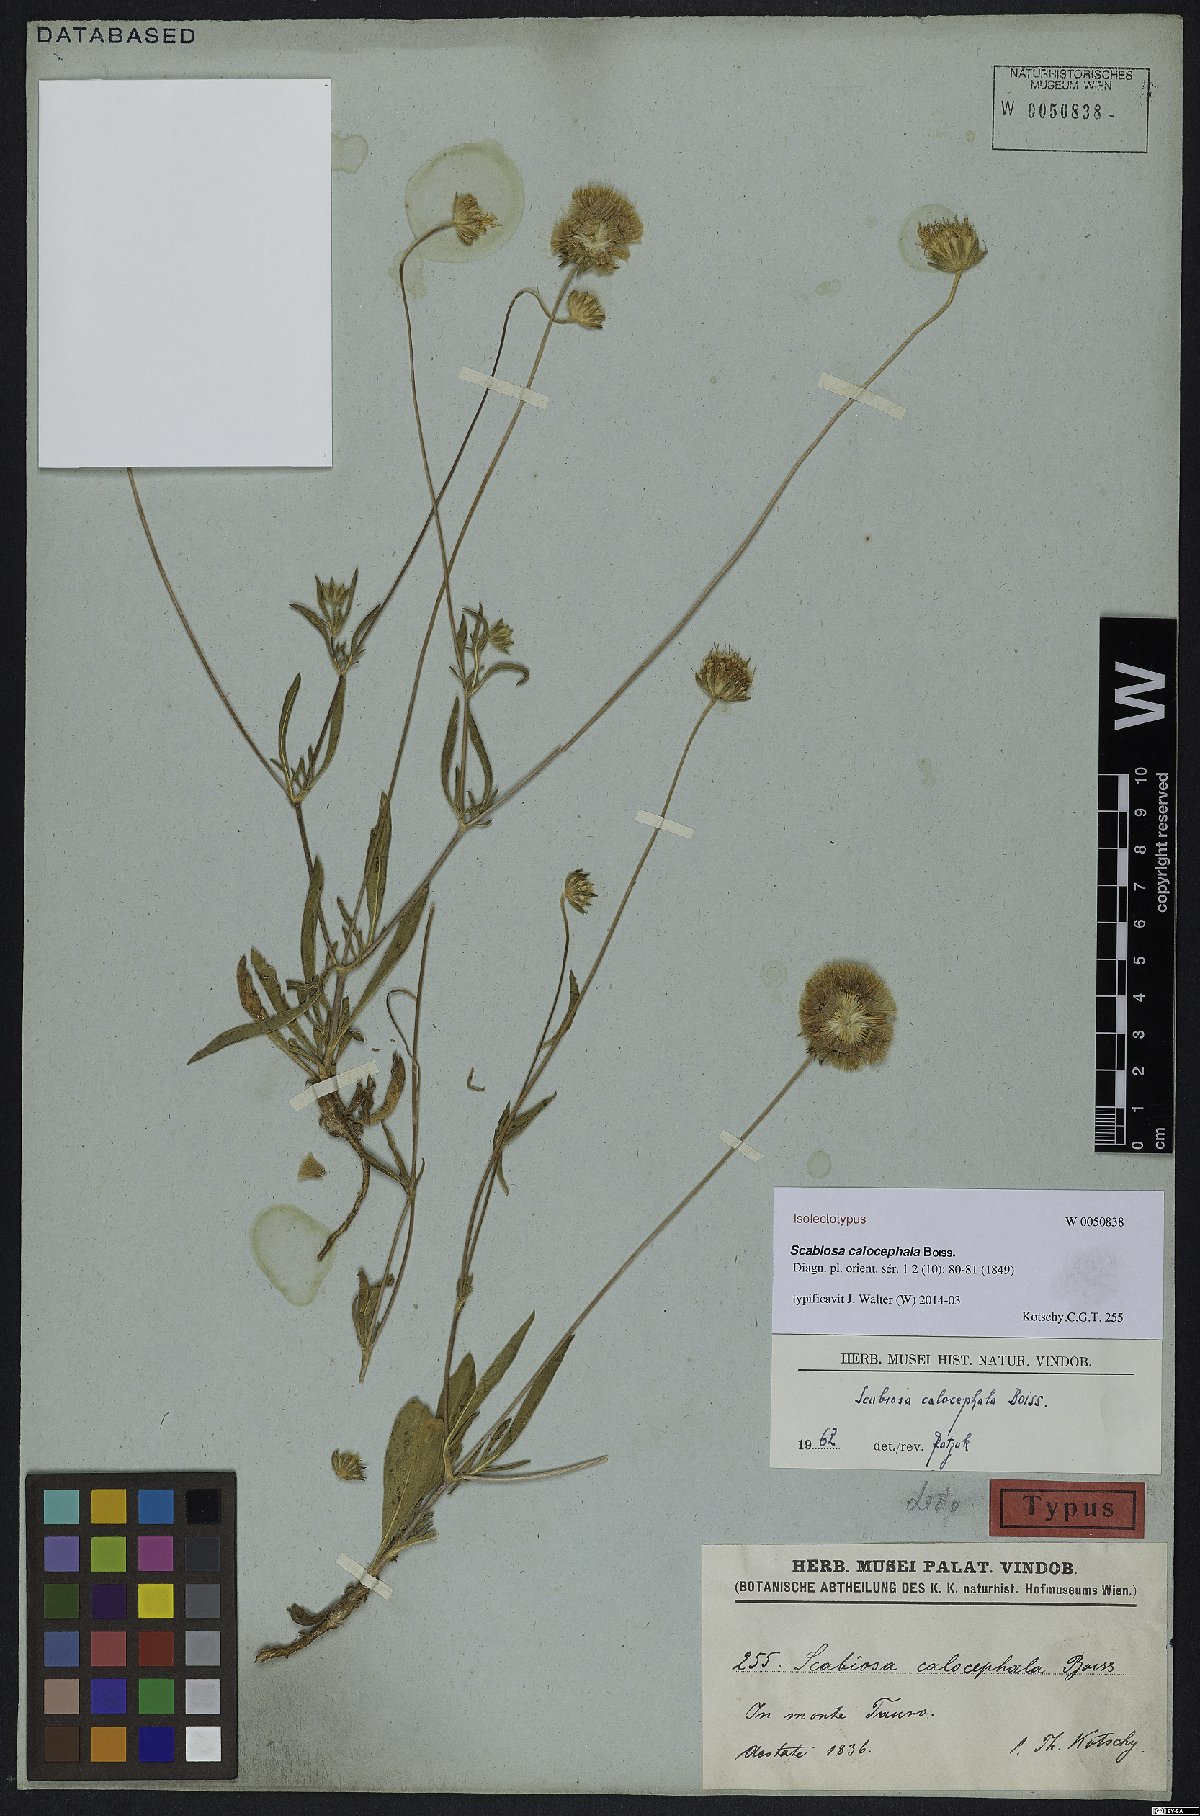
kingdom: Plantae
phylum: Tracheophyta
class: Magnoliopsida
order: Dipsacales
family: Caprifoliaceae
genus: Lomelosia
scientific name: Lomelosia calocephala
